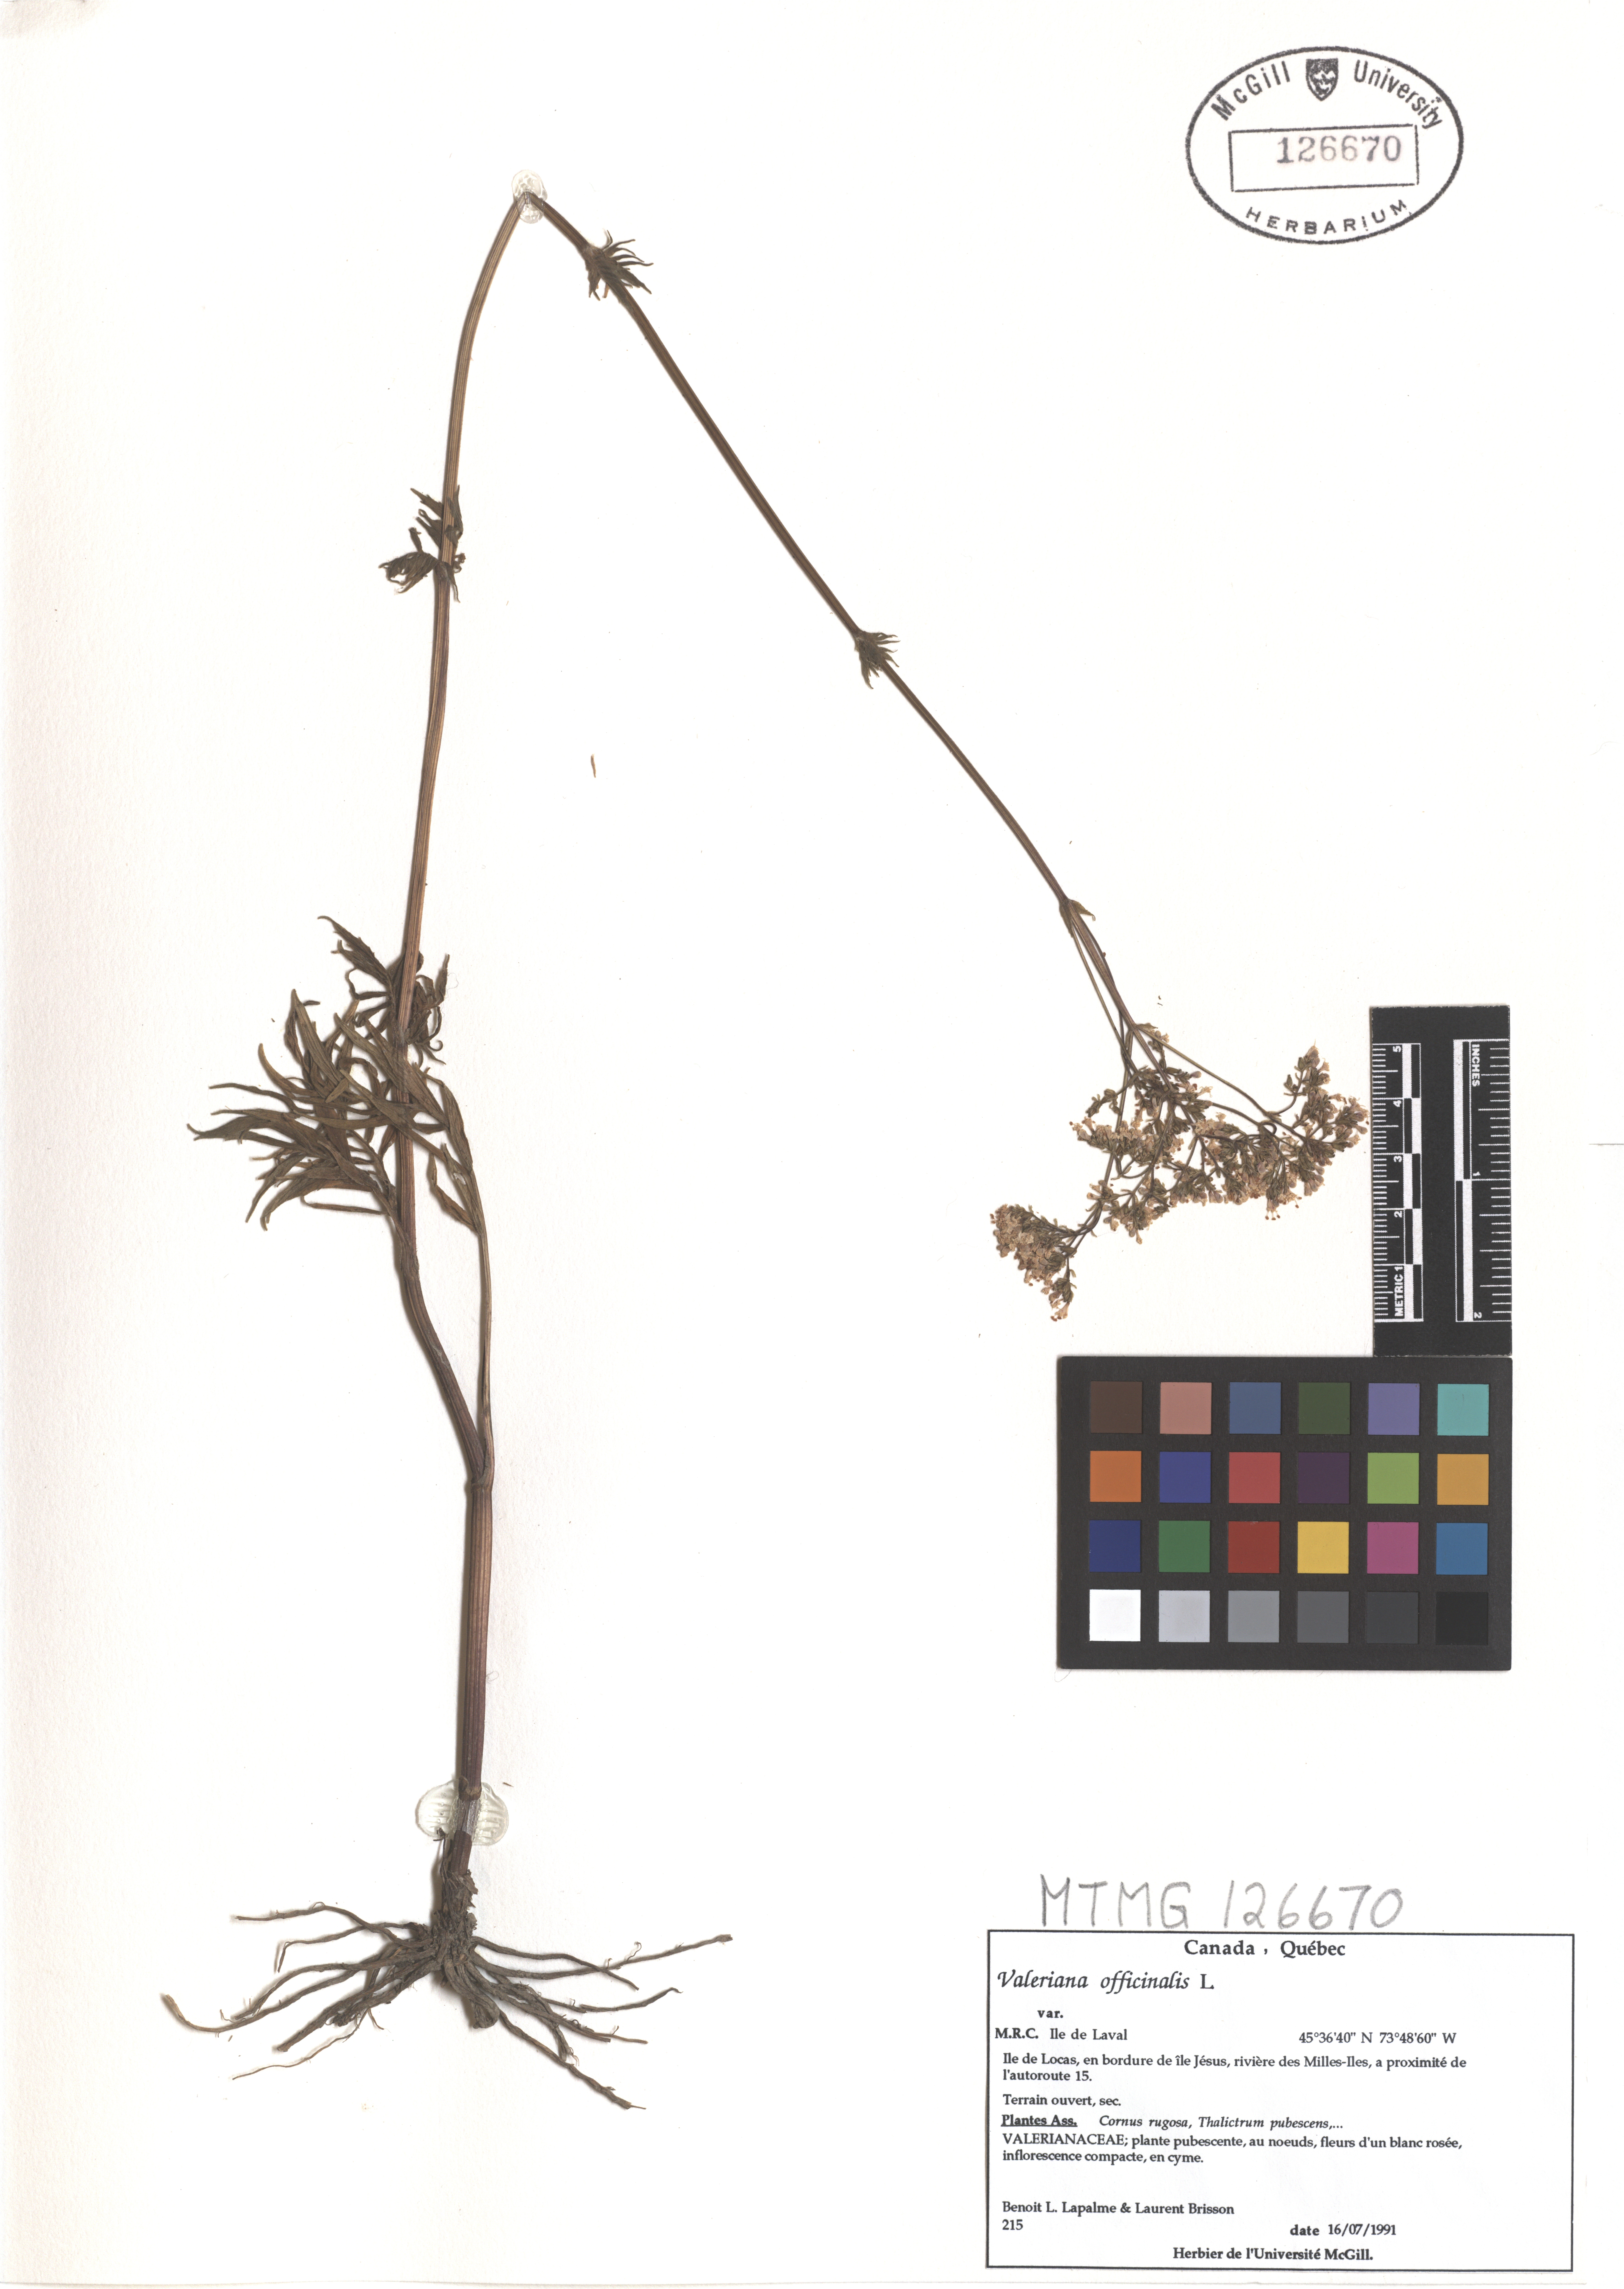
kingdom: Plantae
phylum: Tracheophyta
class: Magnoliopsida
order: Dipsacales
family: Caprifoliaceae
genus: Valeriana
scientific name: Valeriana officinalis
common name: Common valerian
